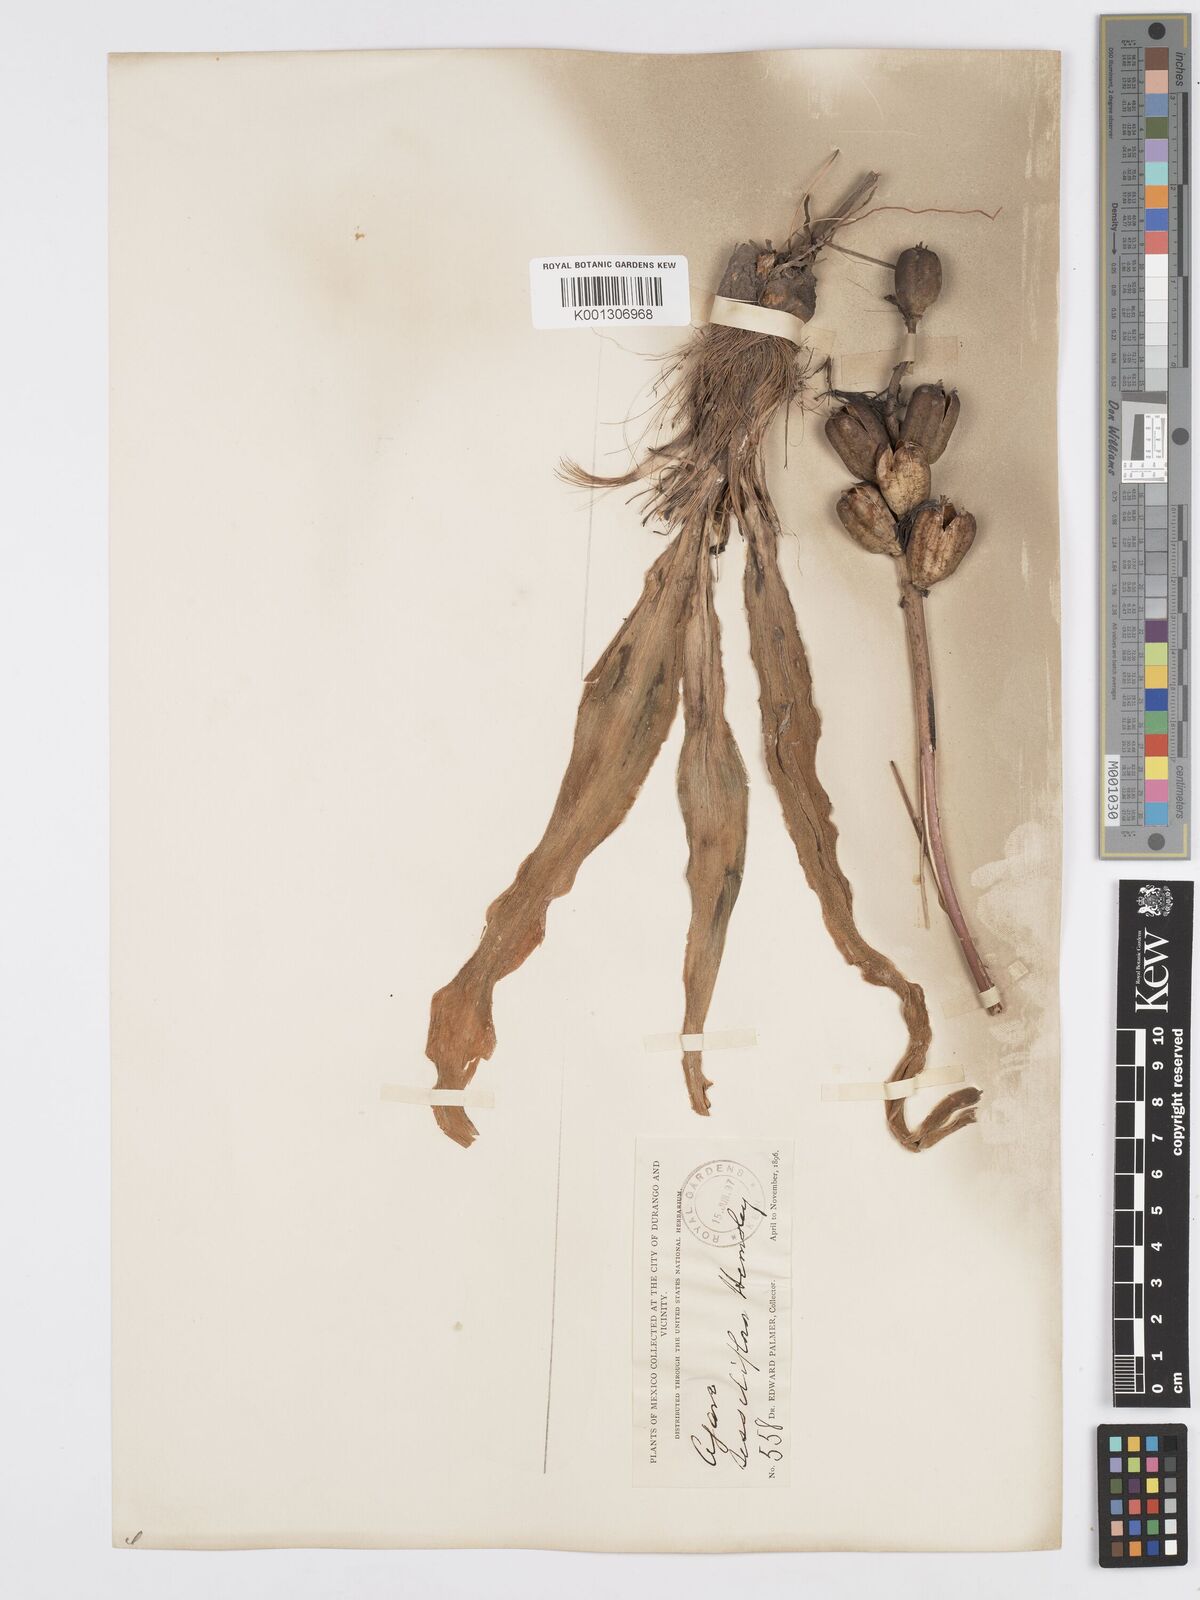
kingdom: Plantae
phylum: Tracheophyta
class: Liliopsida
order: Asparagales
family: Asparagaceae
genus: Agave
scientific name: Agave scabra
